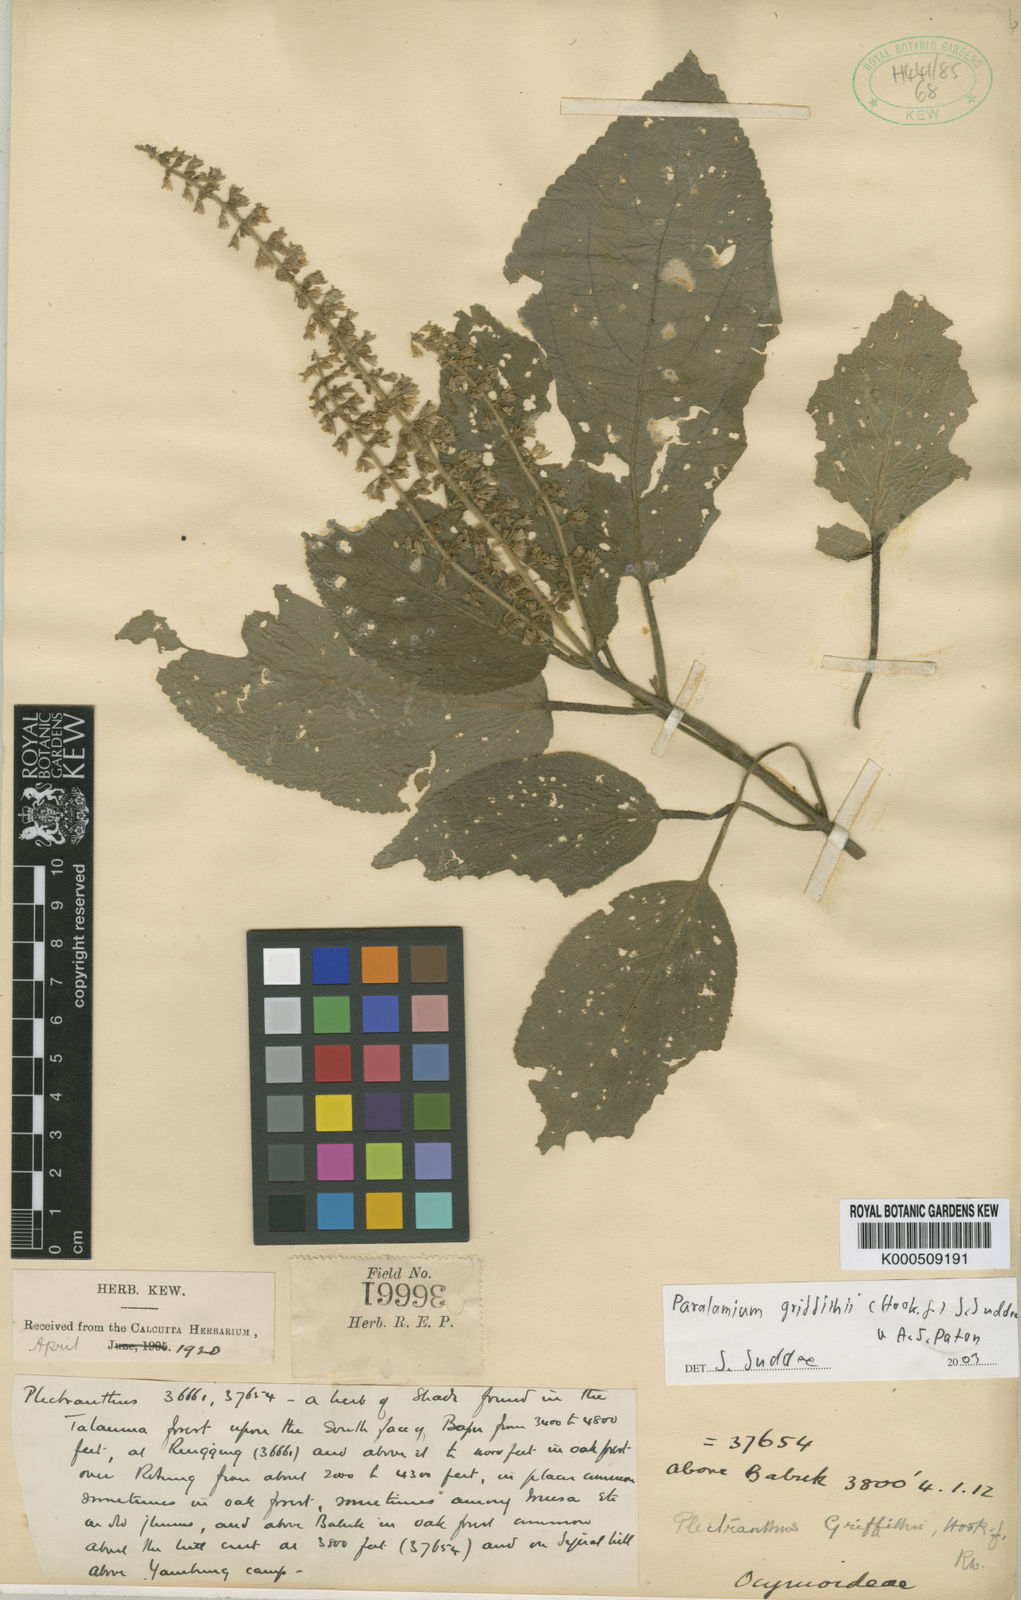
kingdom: Plantae
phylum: Tracheophyta
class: Magnoliopsida
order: Lamiales
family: Lamiaceae
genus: Paralamium
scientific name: Paralamium griffithii
